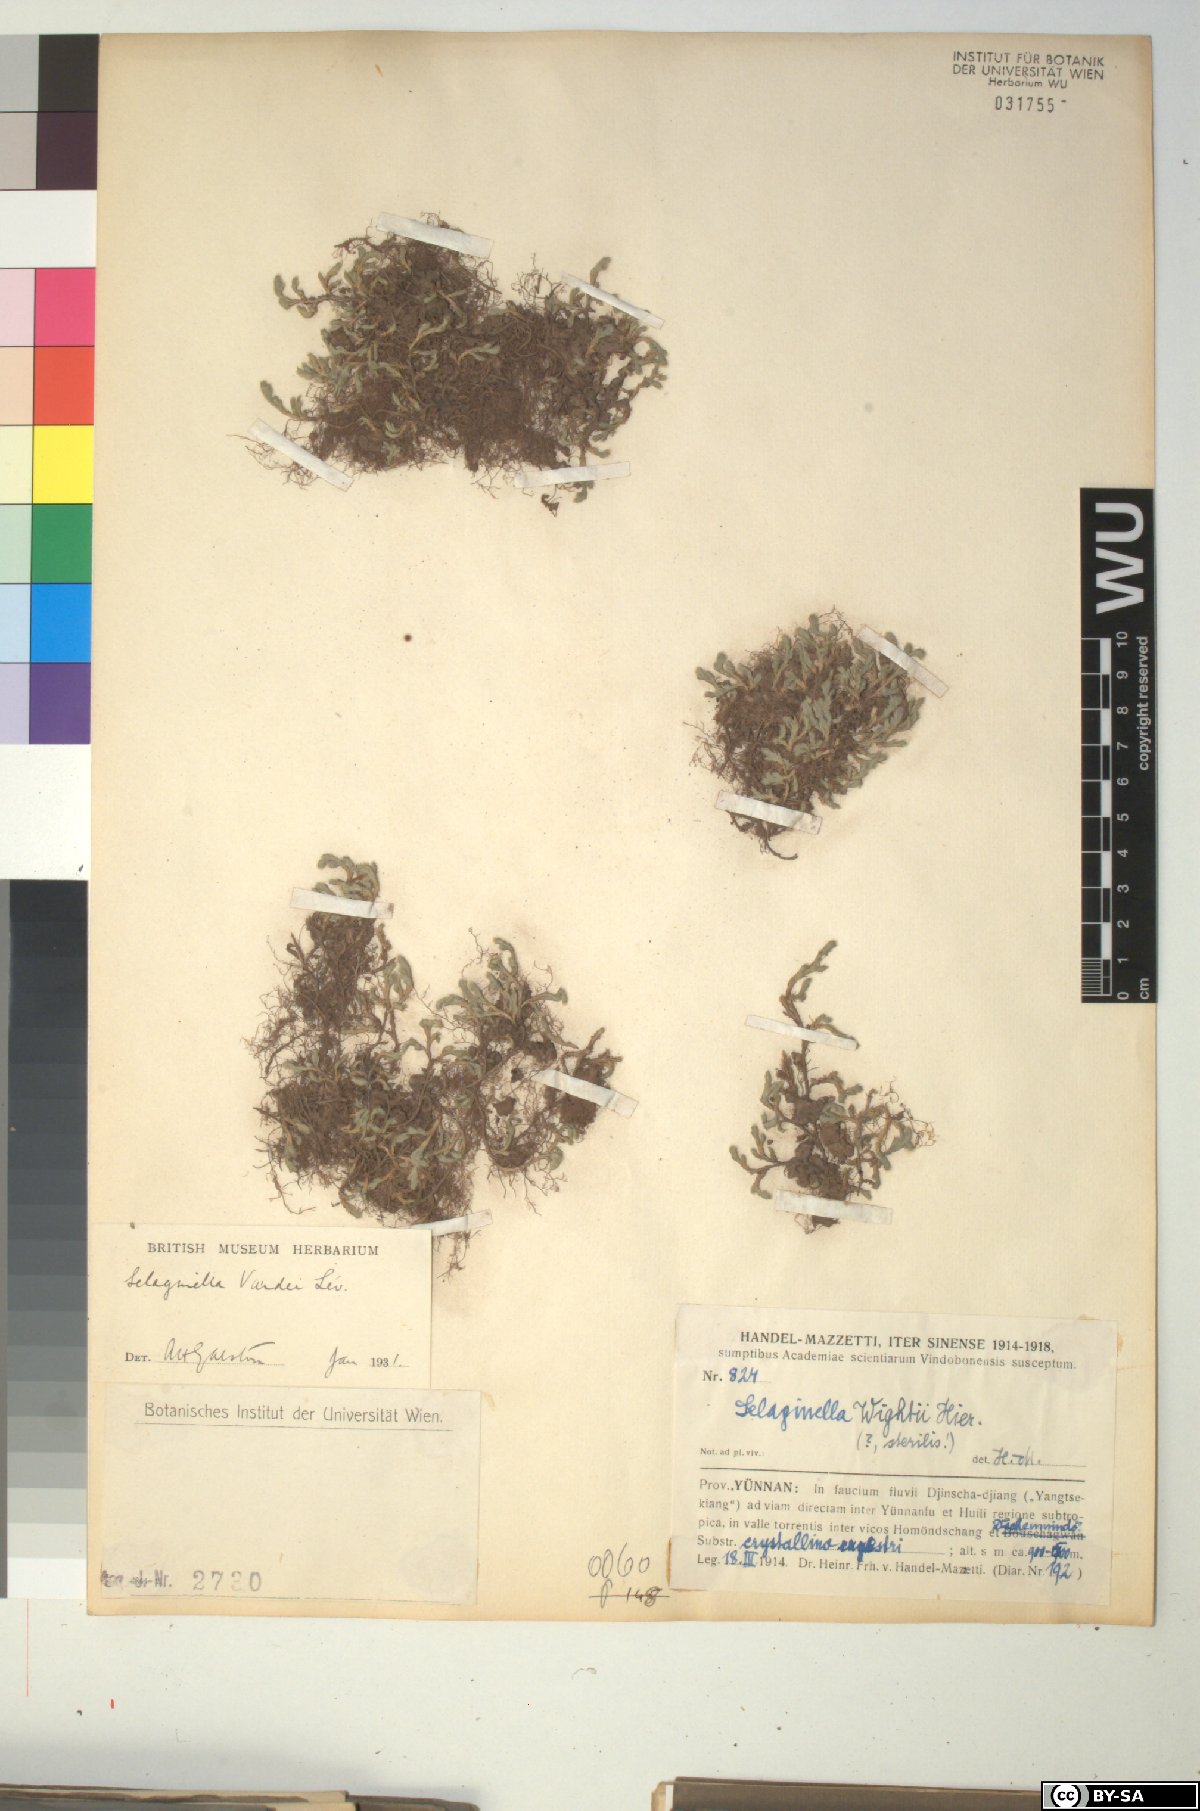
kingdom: Plantae
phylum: Tracheophyta
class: Lycopodiopsida
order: Selaginellales
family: Selaginellaceae
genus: Selaginella
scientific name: Selaginella vardei
